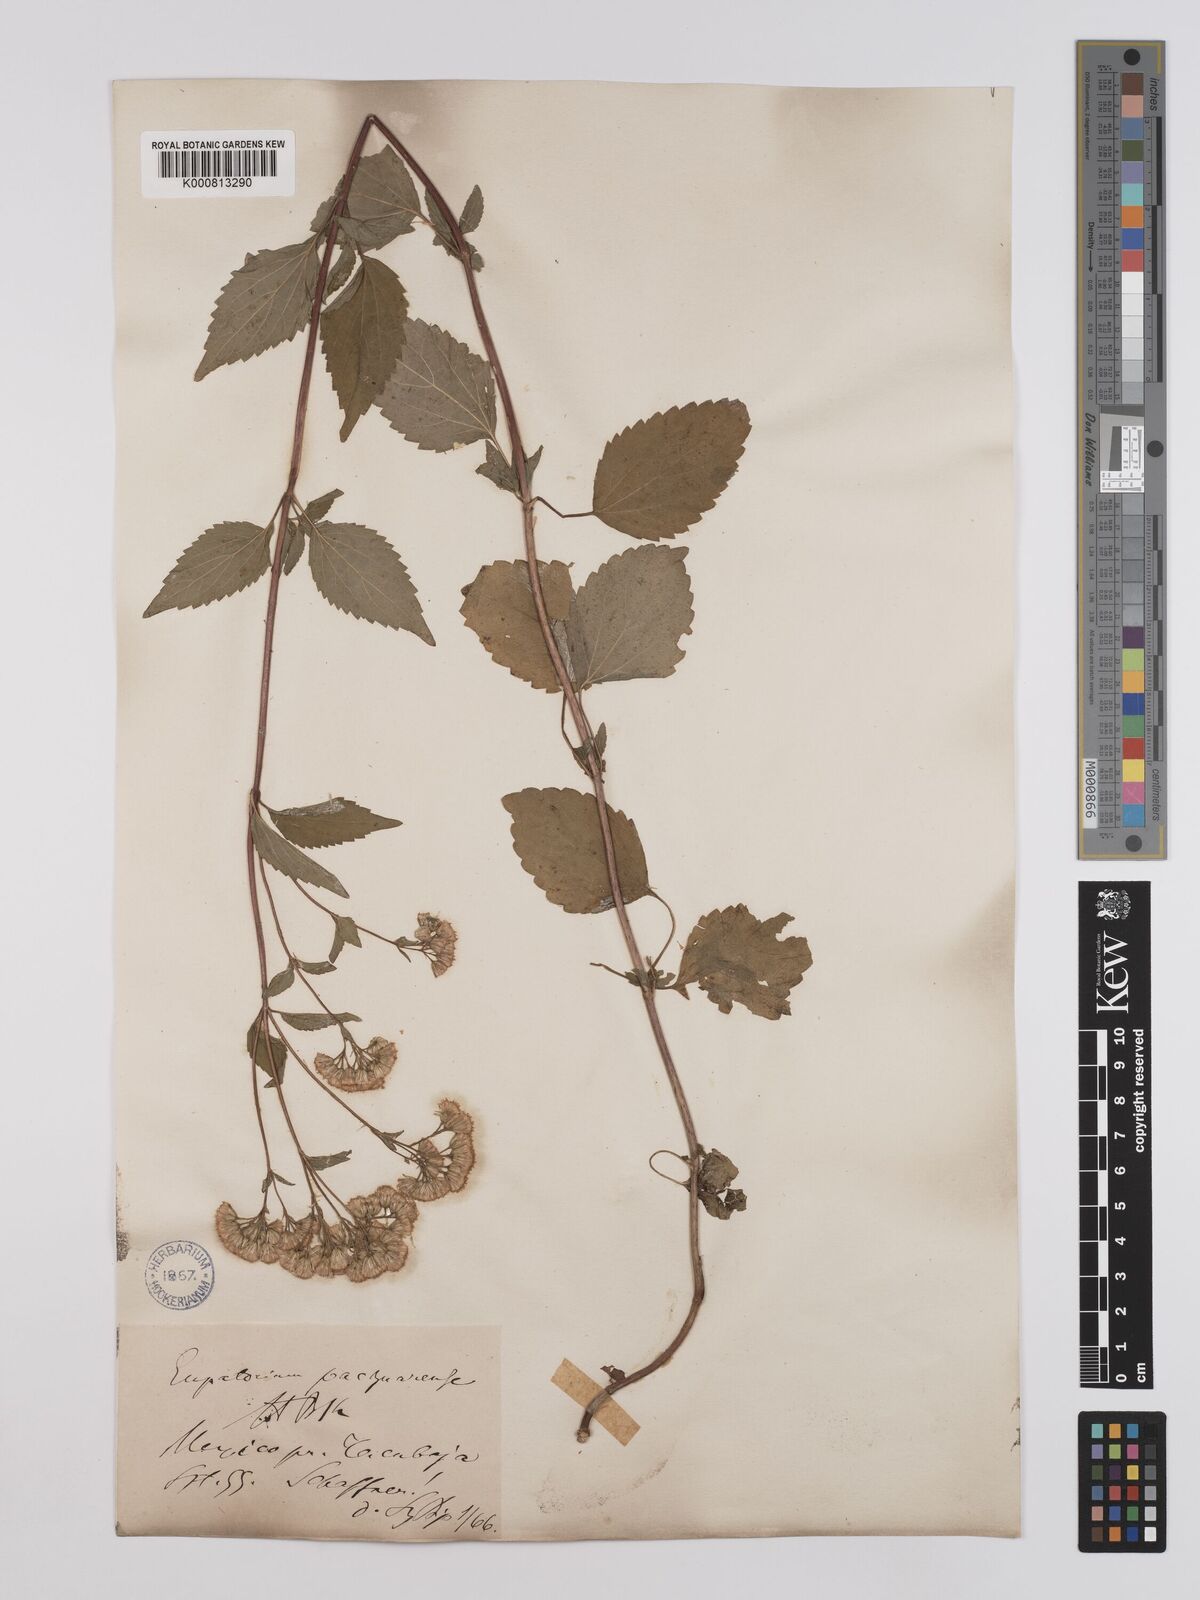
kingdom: Plantae
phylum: Tracheophyta
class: Magnoliopsida
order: Asterales
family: Asteraceae
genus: Ageratina
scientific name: Ageratina pazcuarensis
